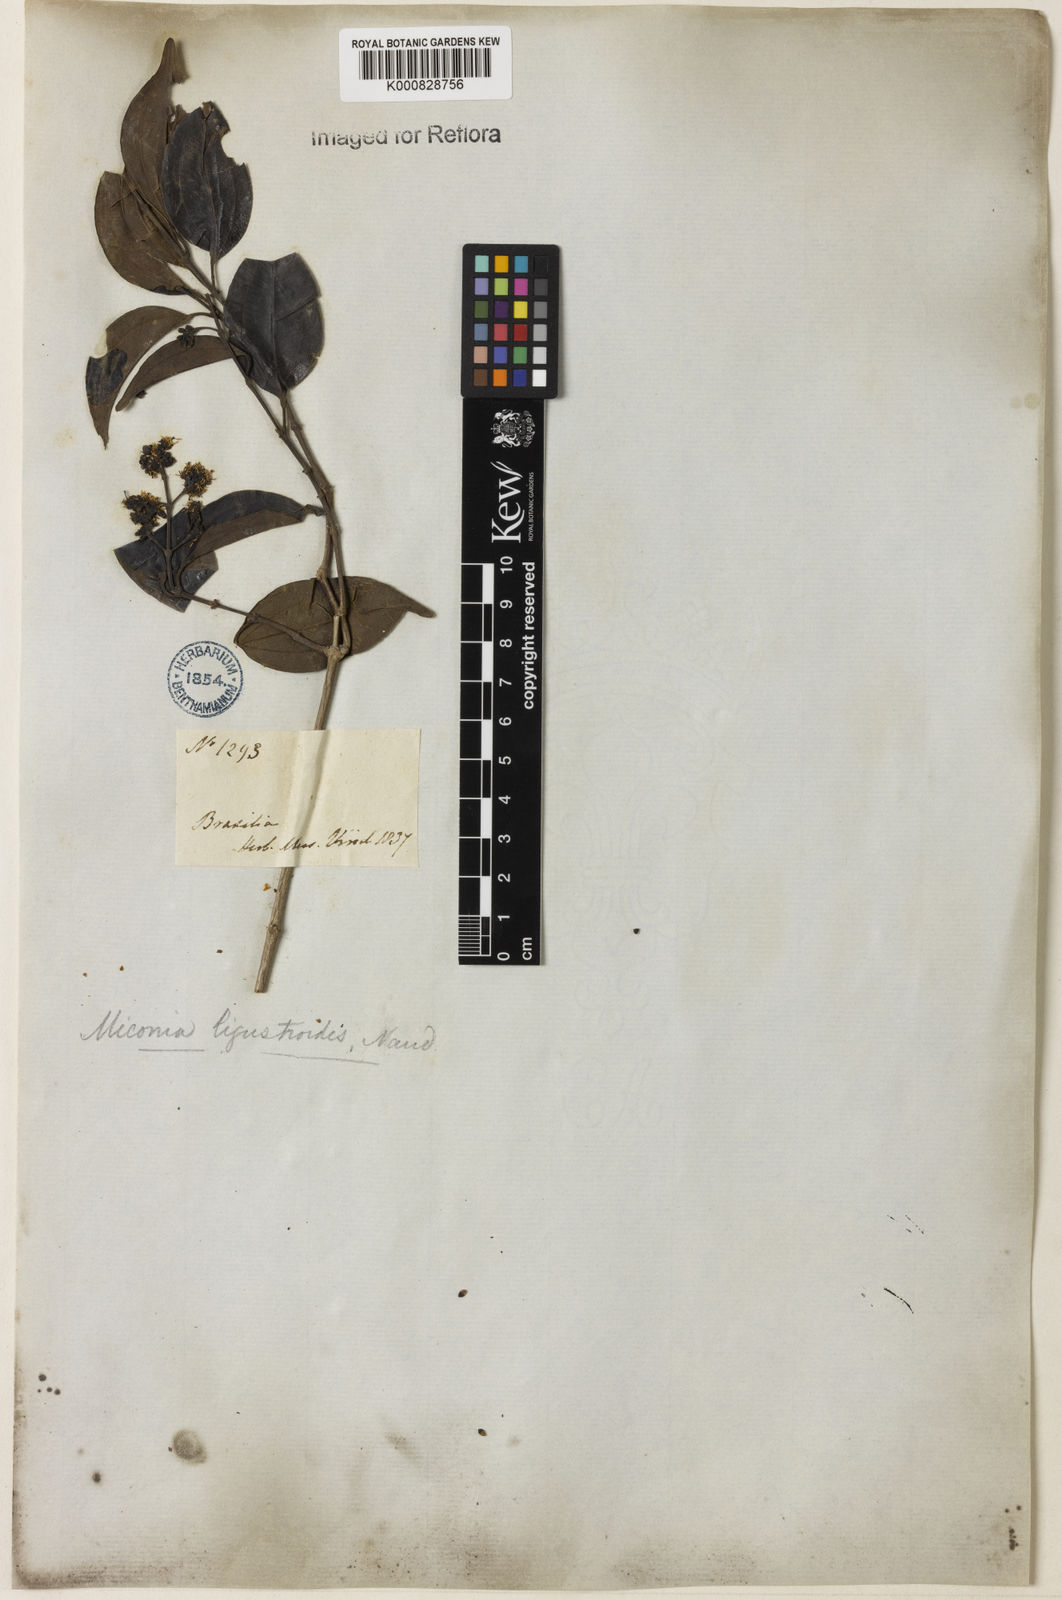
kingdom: Plantae
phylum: Tracheophyta
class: Magnoliopsida
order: Myrtales
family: Melastomataceae
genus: Miconia
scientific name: Miconia ligustroides
